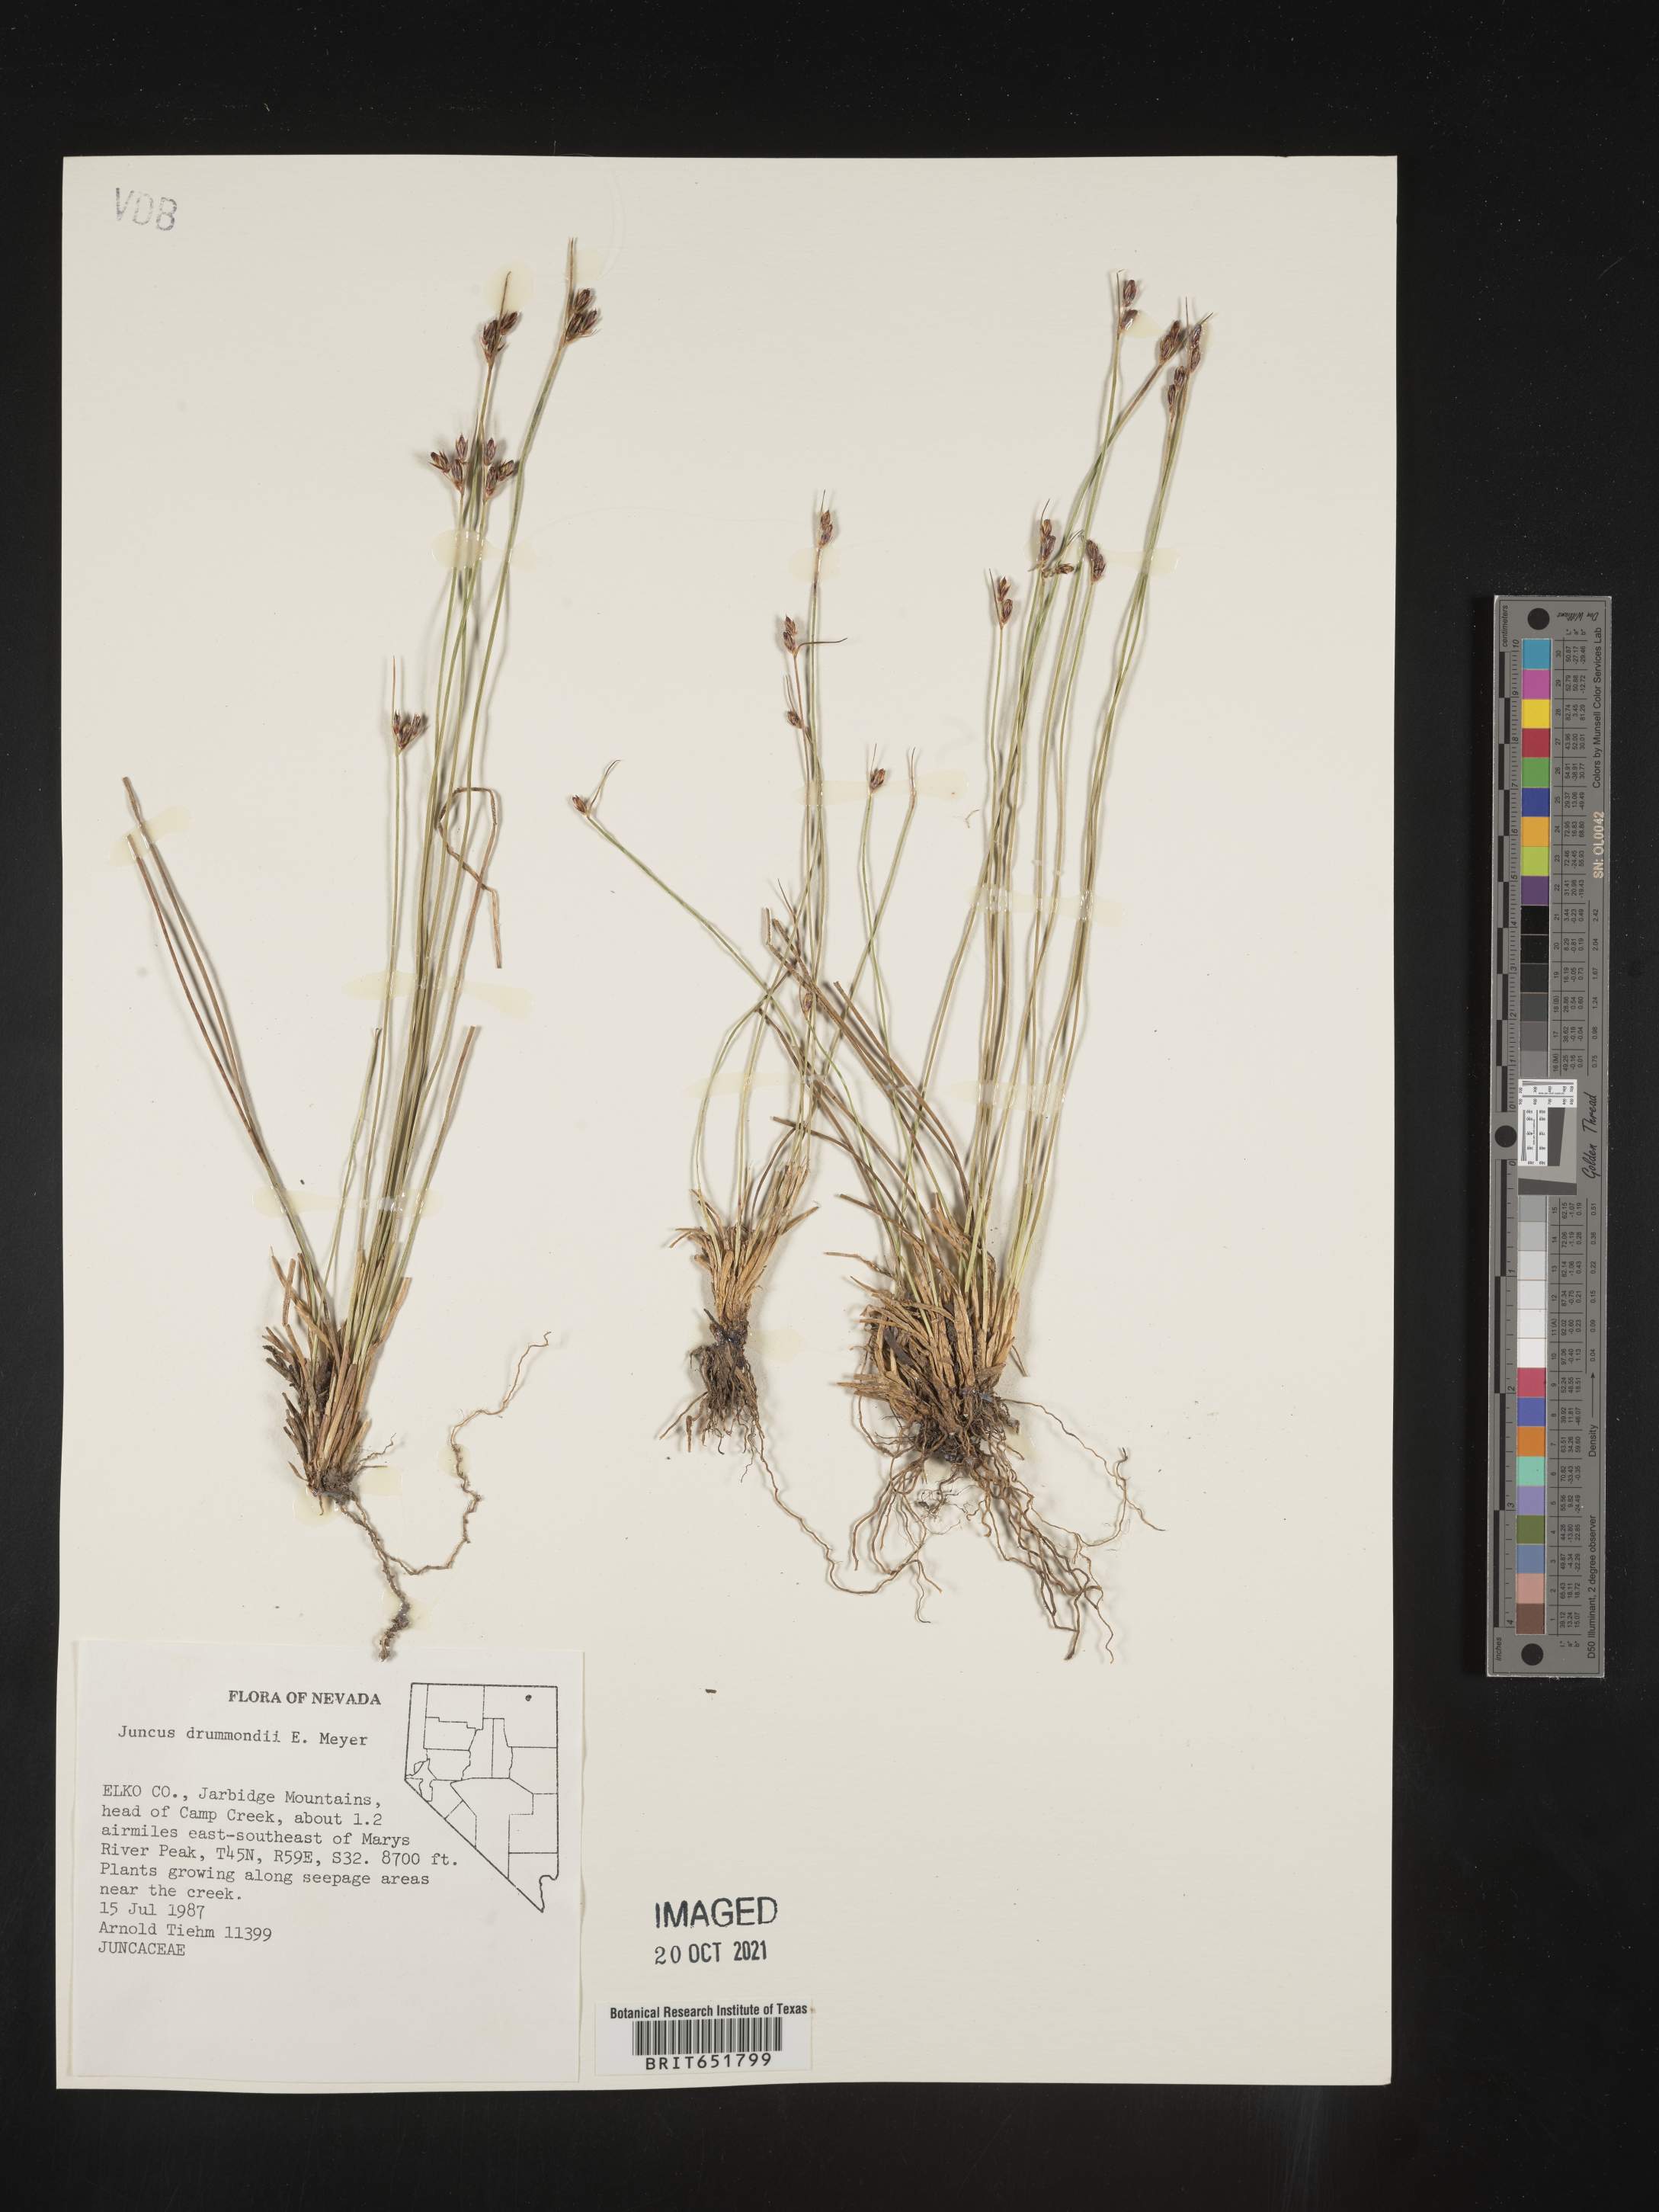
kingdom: Plantae
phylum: Tracheophyta
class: Liliopsida
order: Poales
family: Juncaceae
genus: Juncus
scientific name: Juncus drummondii
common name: Drummond's rush
